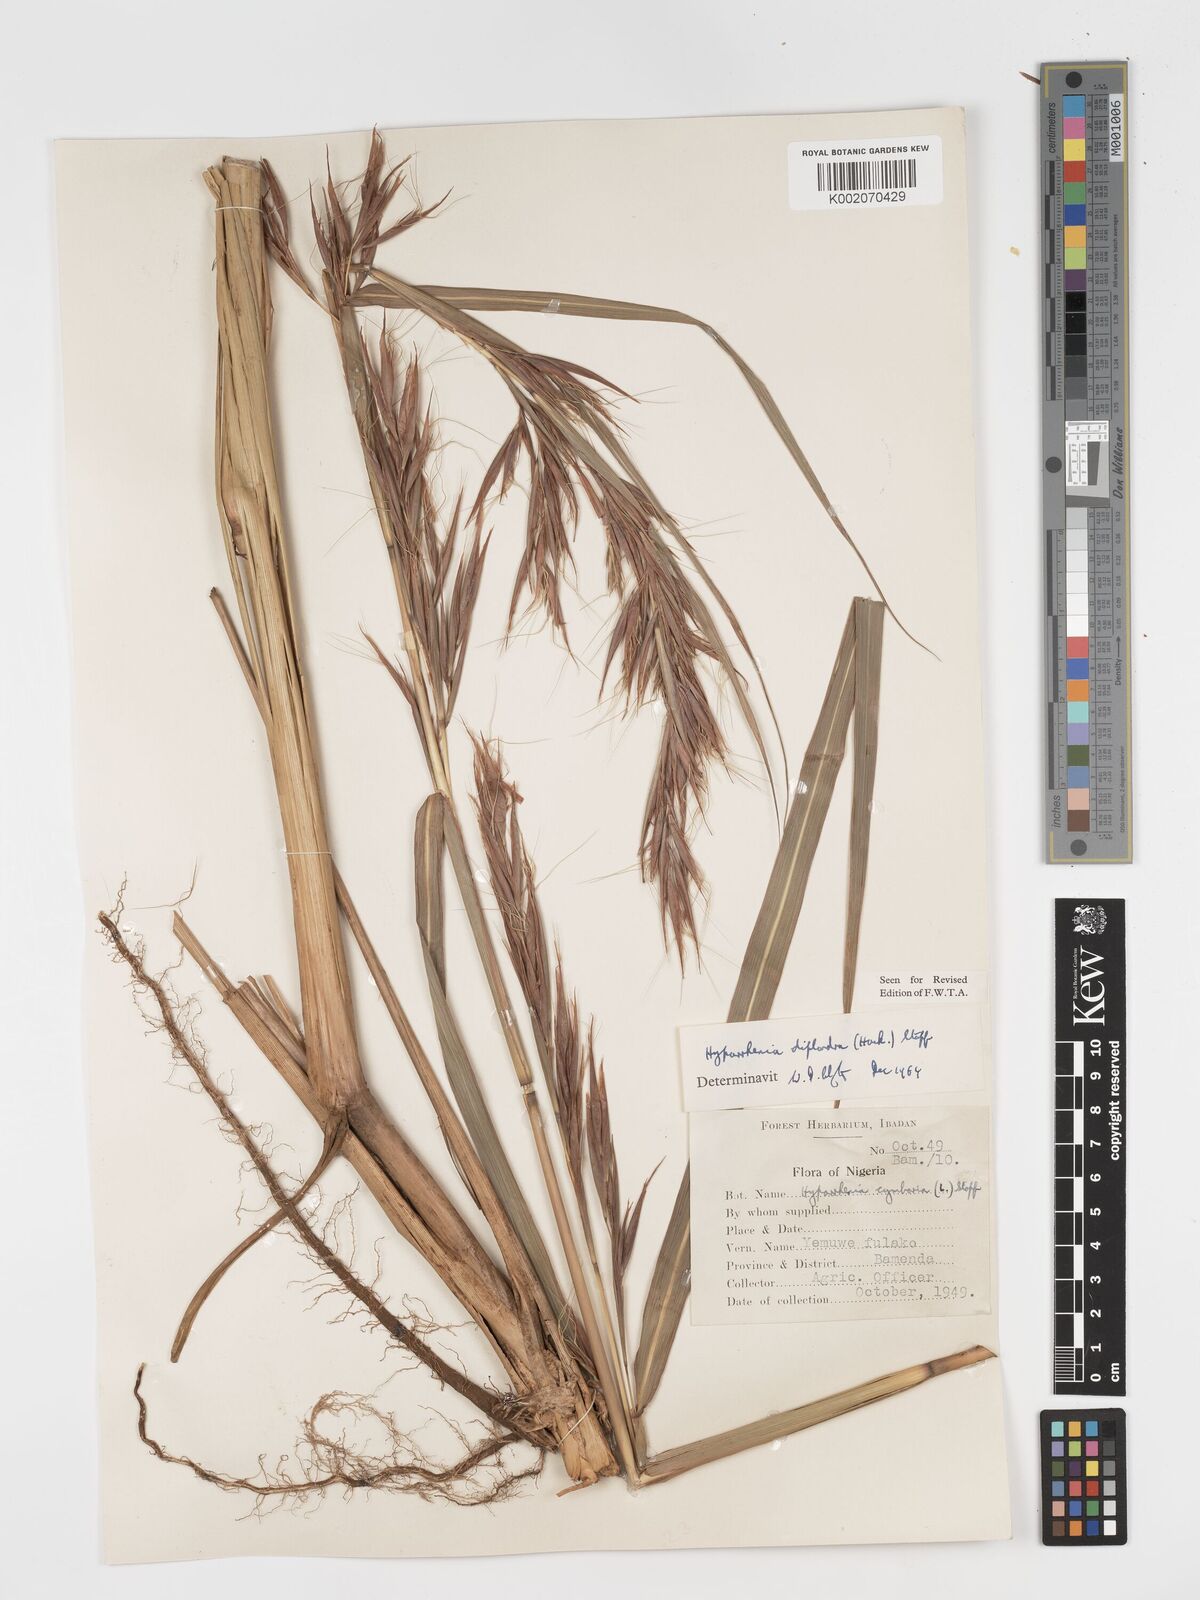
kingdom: Plantae
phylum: Tracheophyta
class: Liliopsida
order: Poales
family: Poaceae
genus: Hyparrhenia
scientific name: Hyparrhenia diplandra
